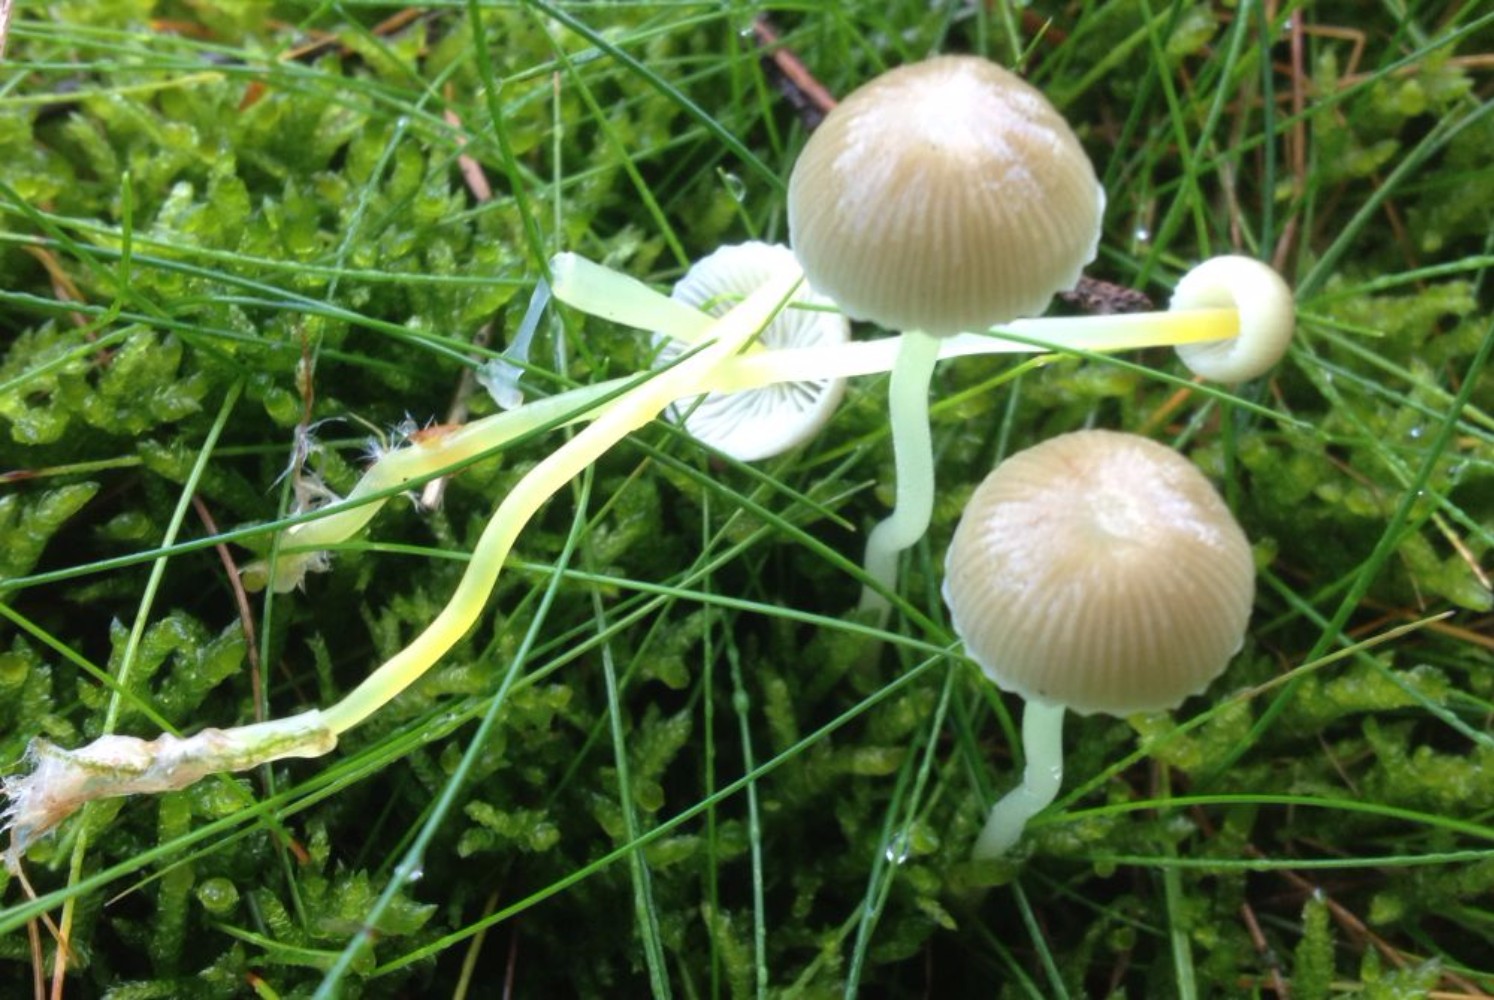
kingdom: Fungi
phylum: Basidiomycota
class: Agaricomycetes
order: Agaricales
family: Mycenaceae
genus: Mycena
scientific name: Mycena epipterygia
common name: gulstokket huesvamp
